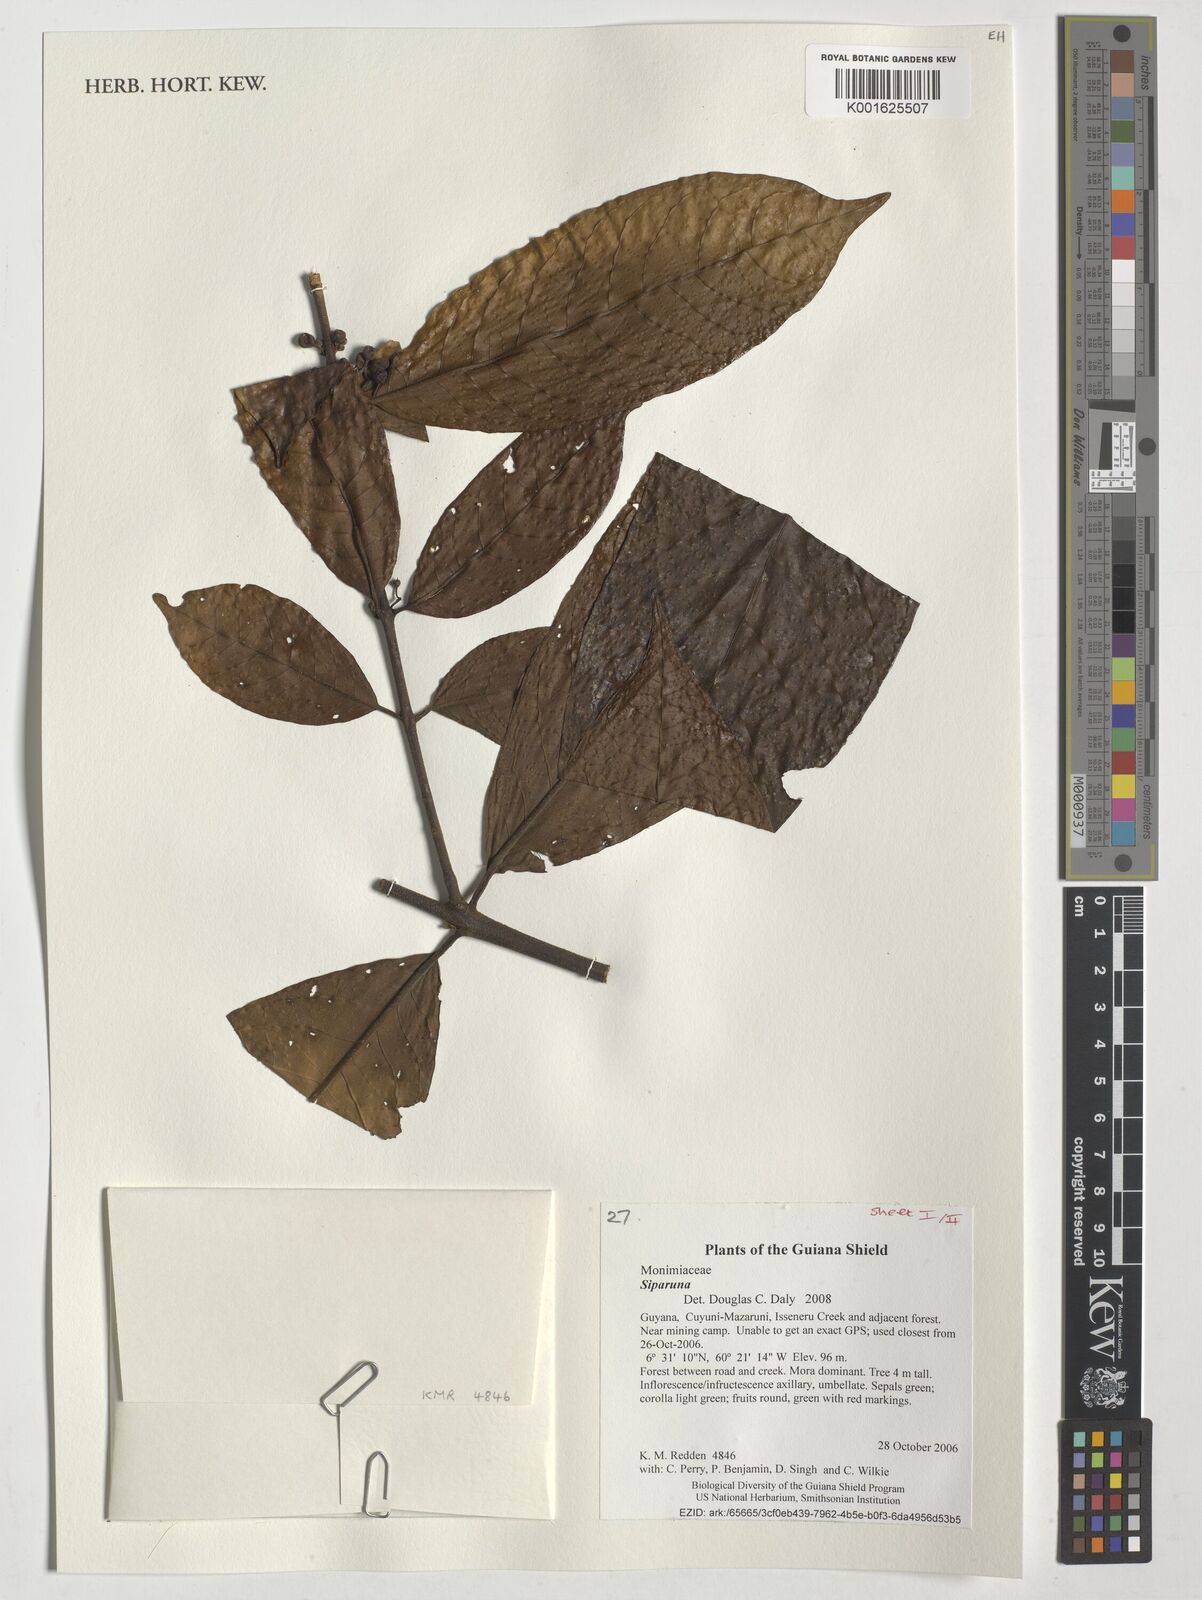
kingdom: Plantae
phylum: Tracheophyta
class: Magnoliopsida
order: Laurales
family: Siparunaceae
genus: Siparuna
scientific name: Siparuna
